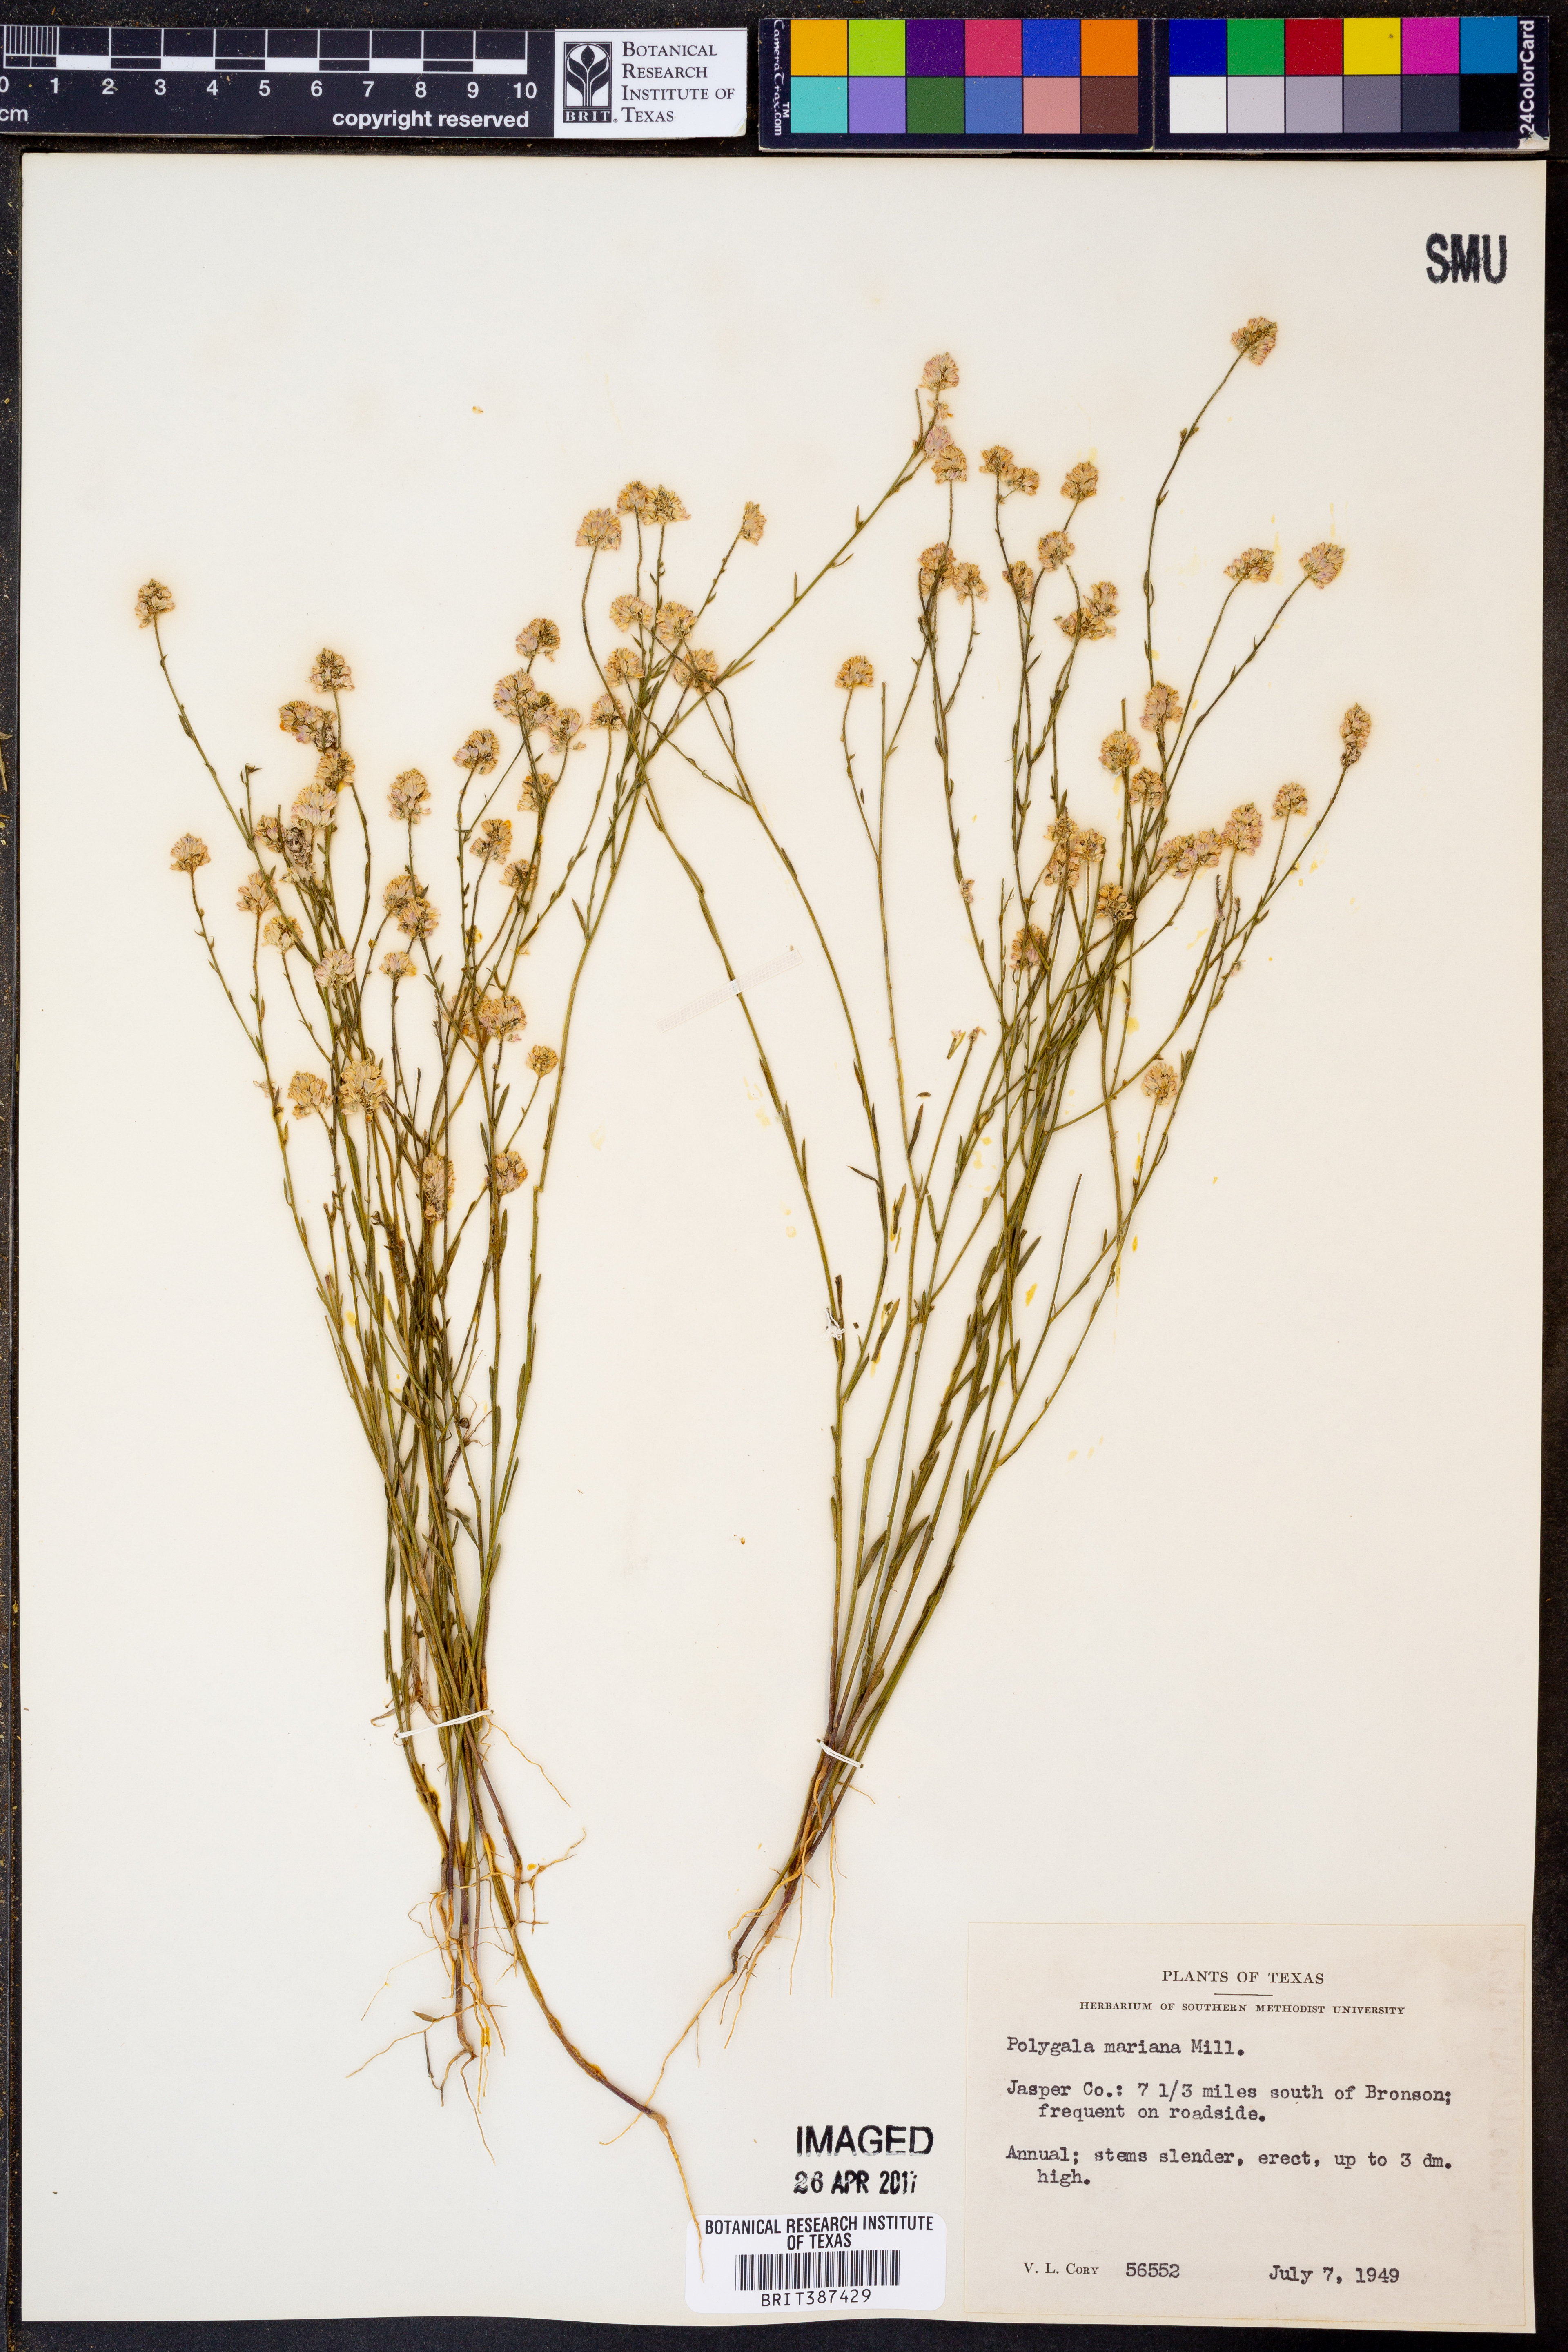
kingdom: Plantae
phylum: Tracheophyta
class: Magnoliopsida
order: Fabales
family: Polygalaceae
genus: Polygala
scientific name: Polygala mariana
